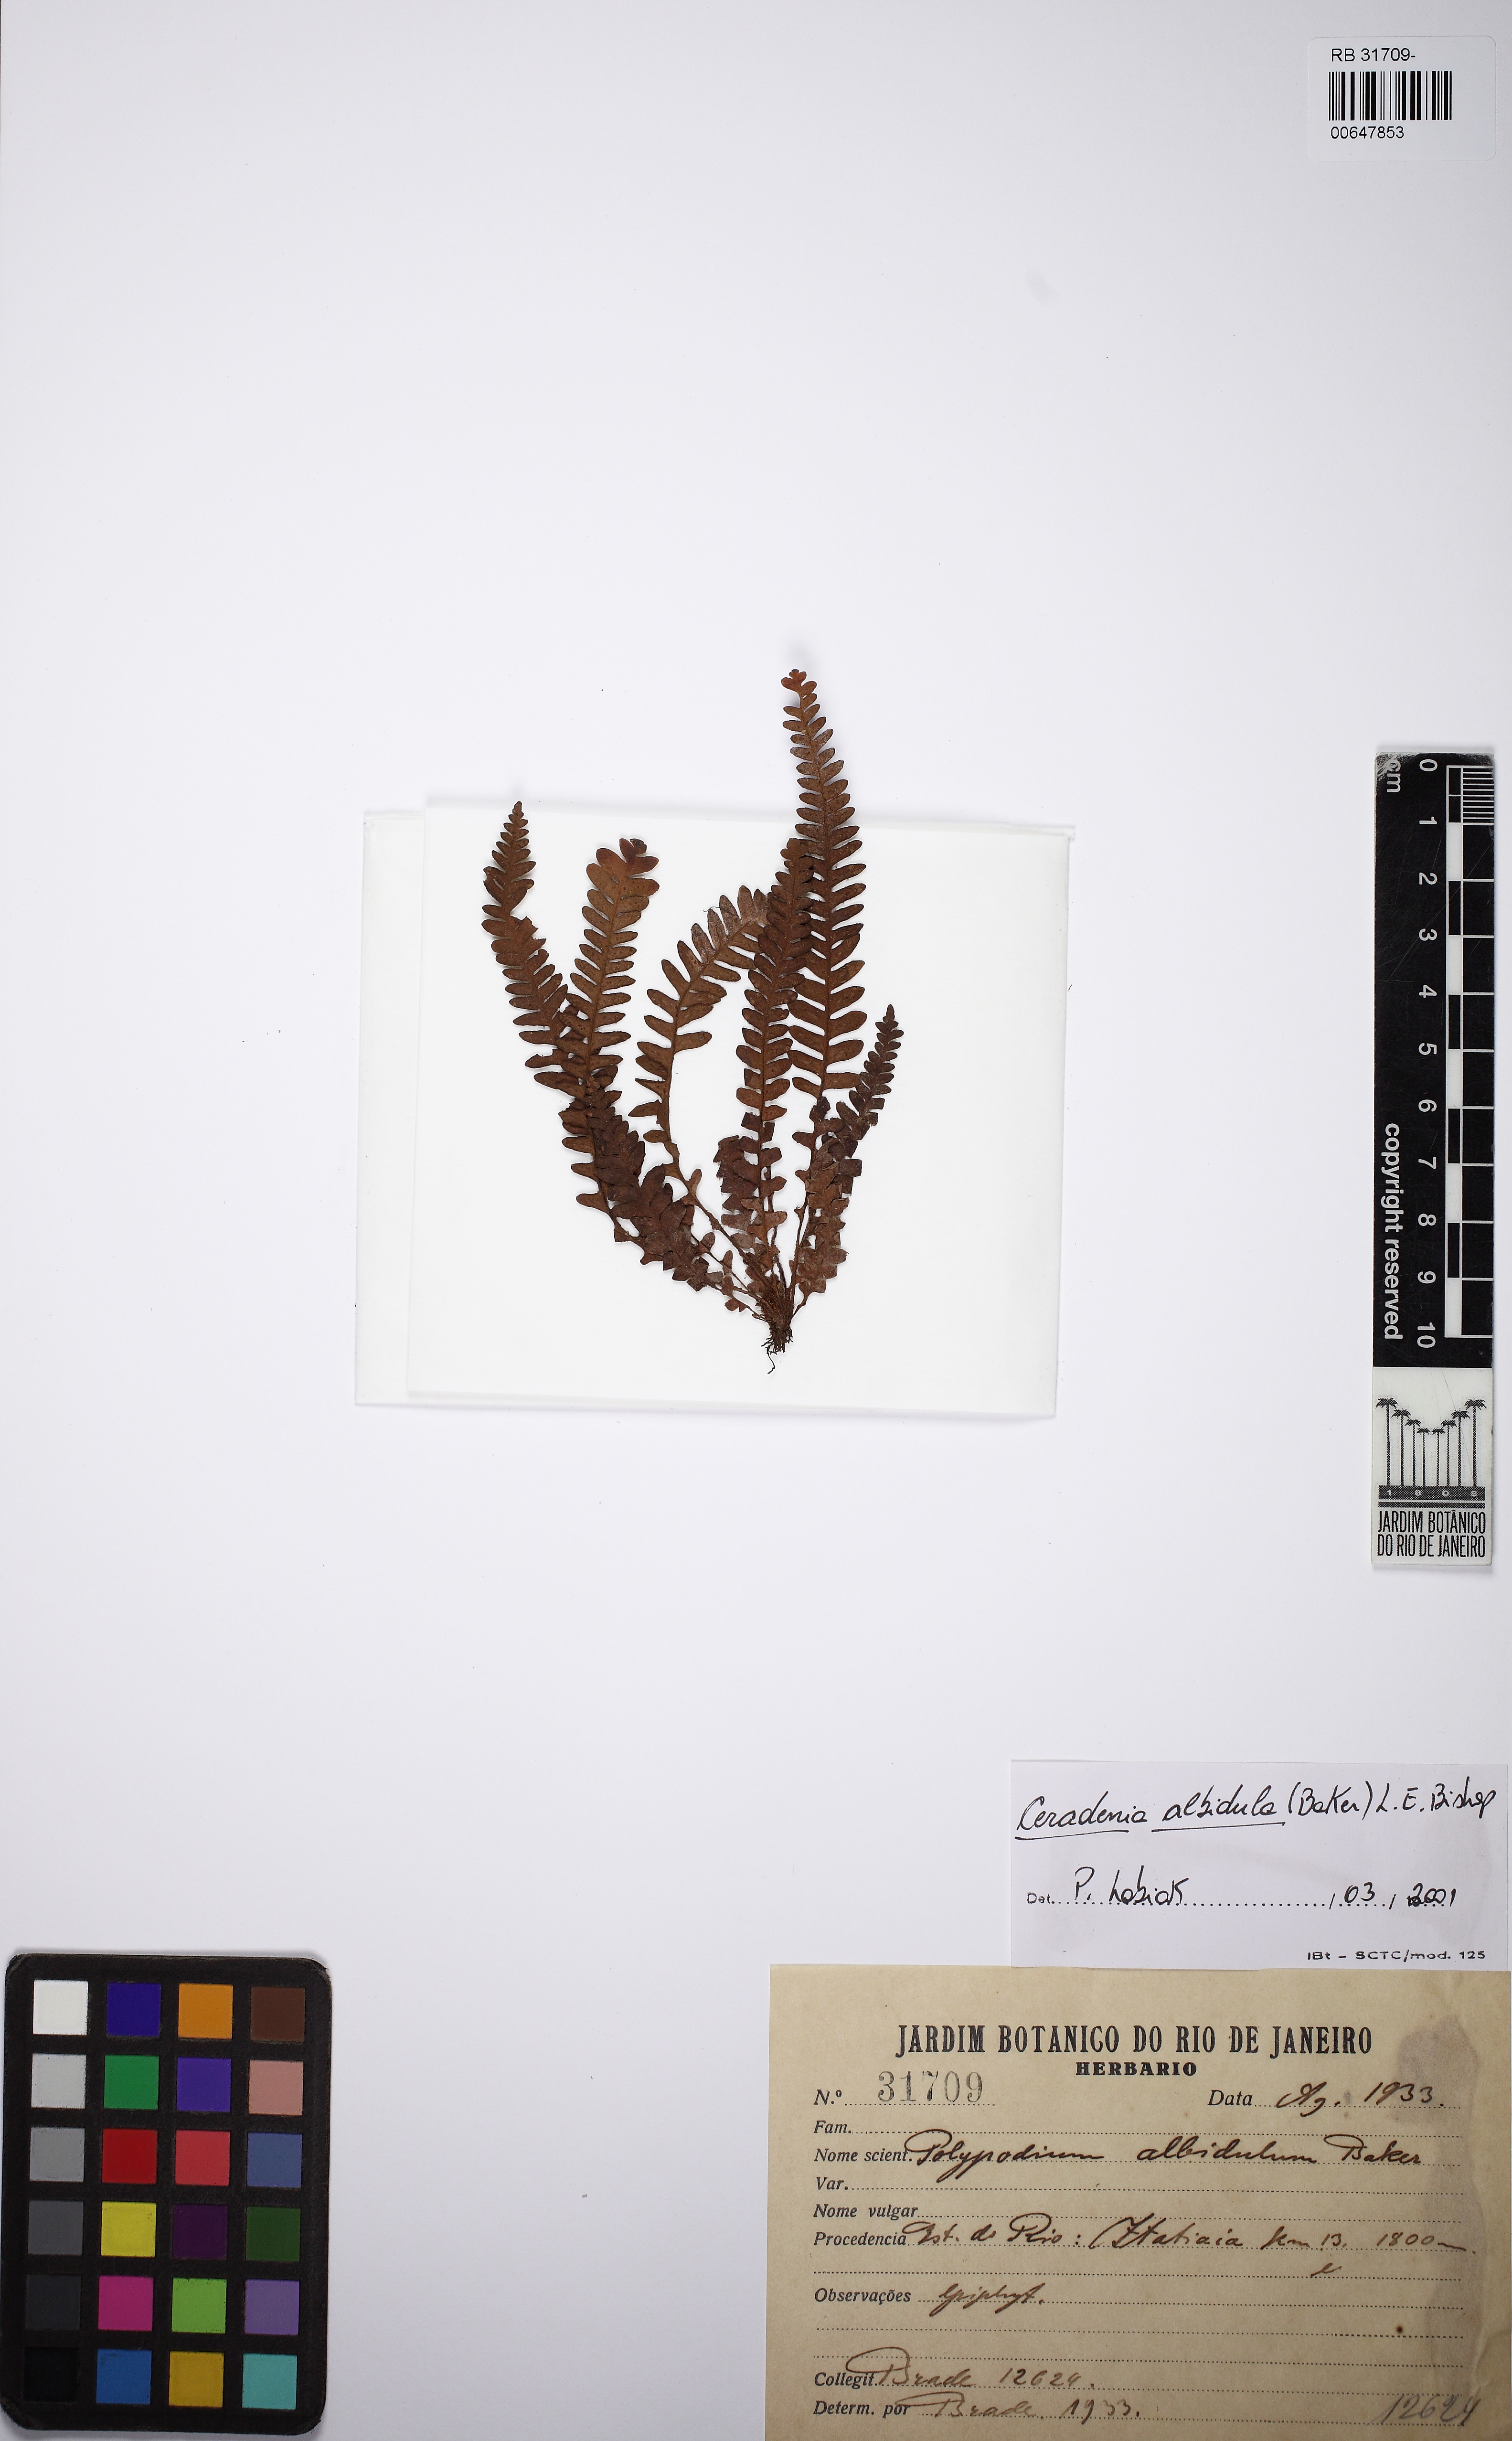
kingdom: Plantae
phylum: Tracheophyta
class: Polypodiopsida
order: Polypodiales
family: Polypodiaceae
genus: Ceradenia
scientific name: Ceradenia albidula
